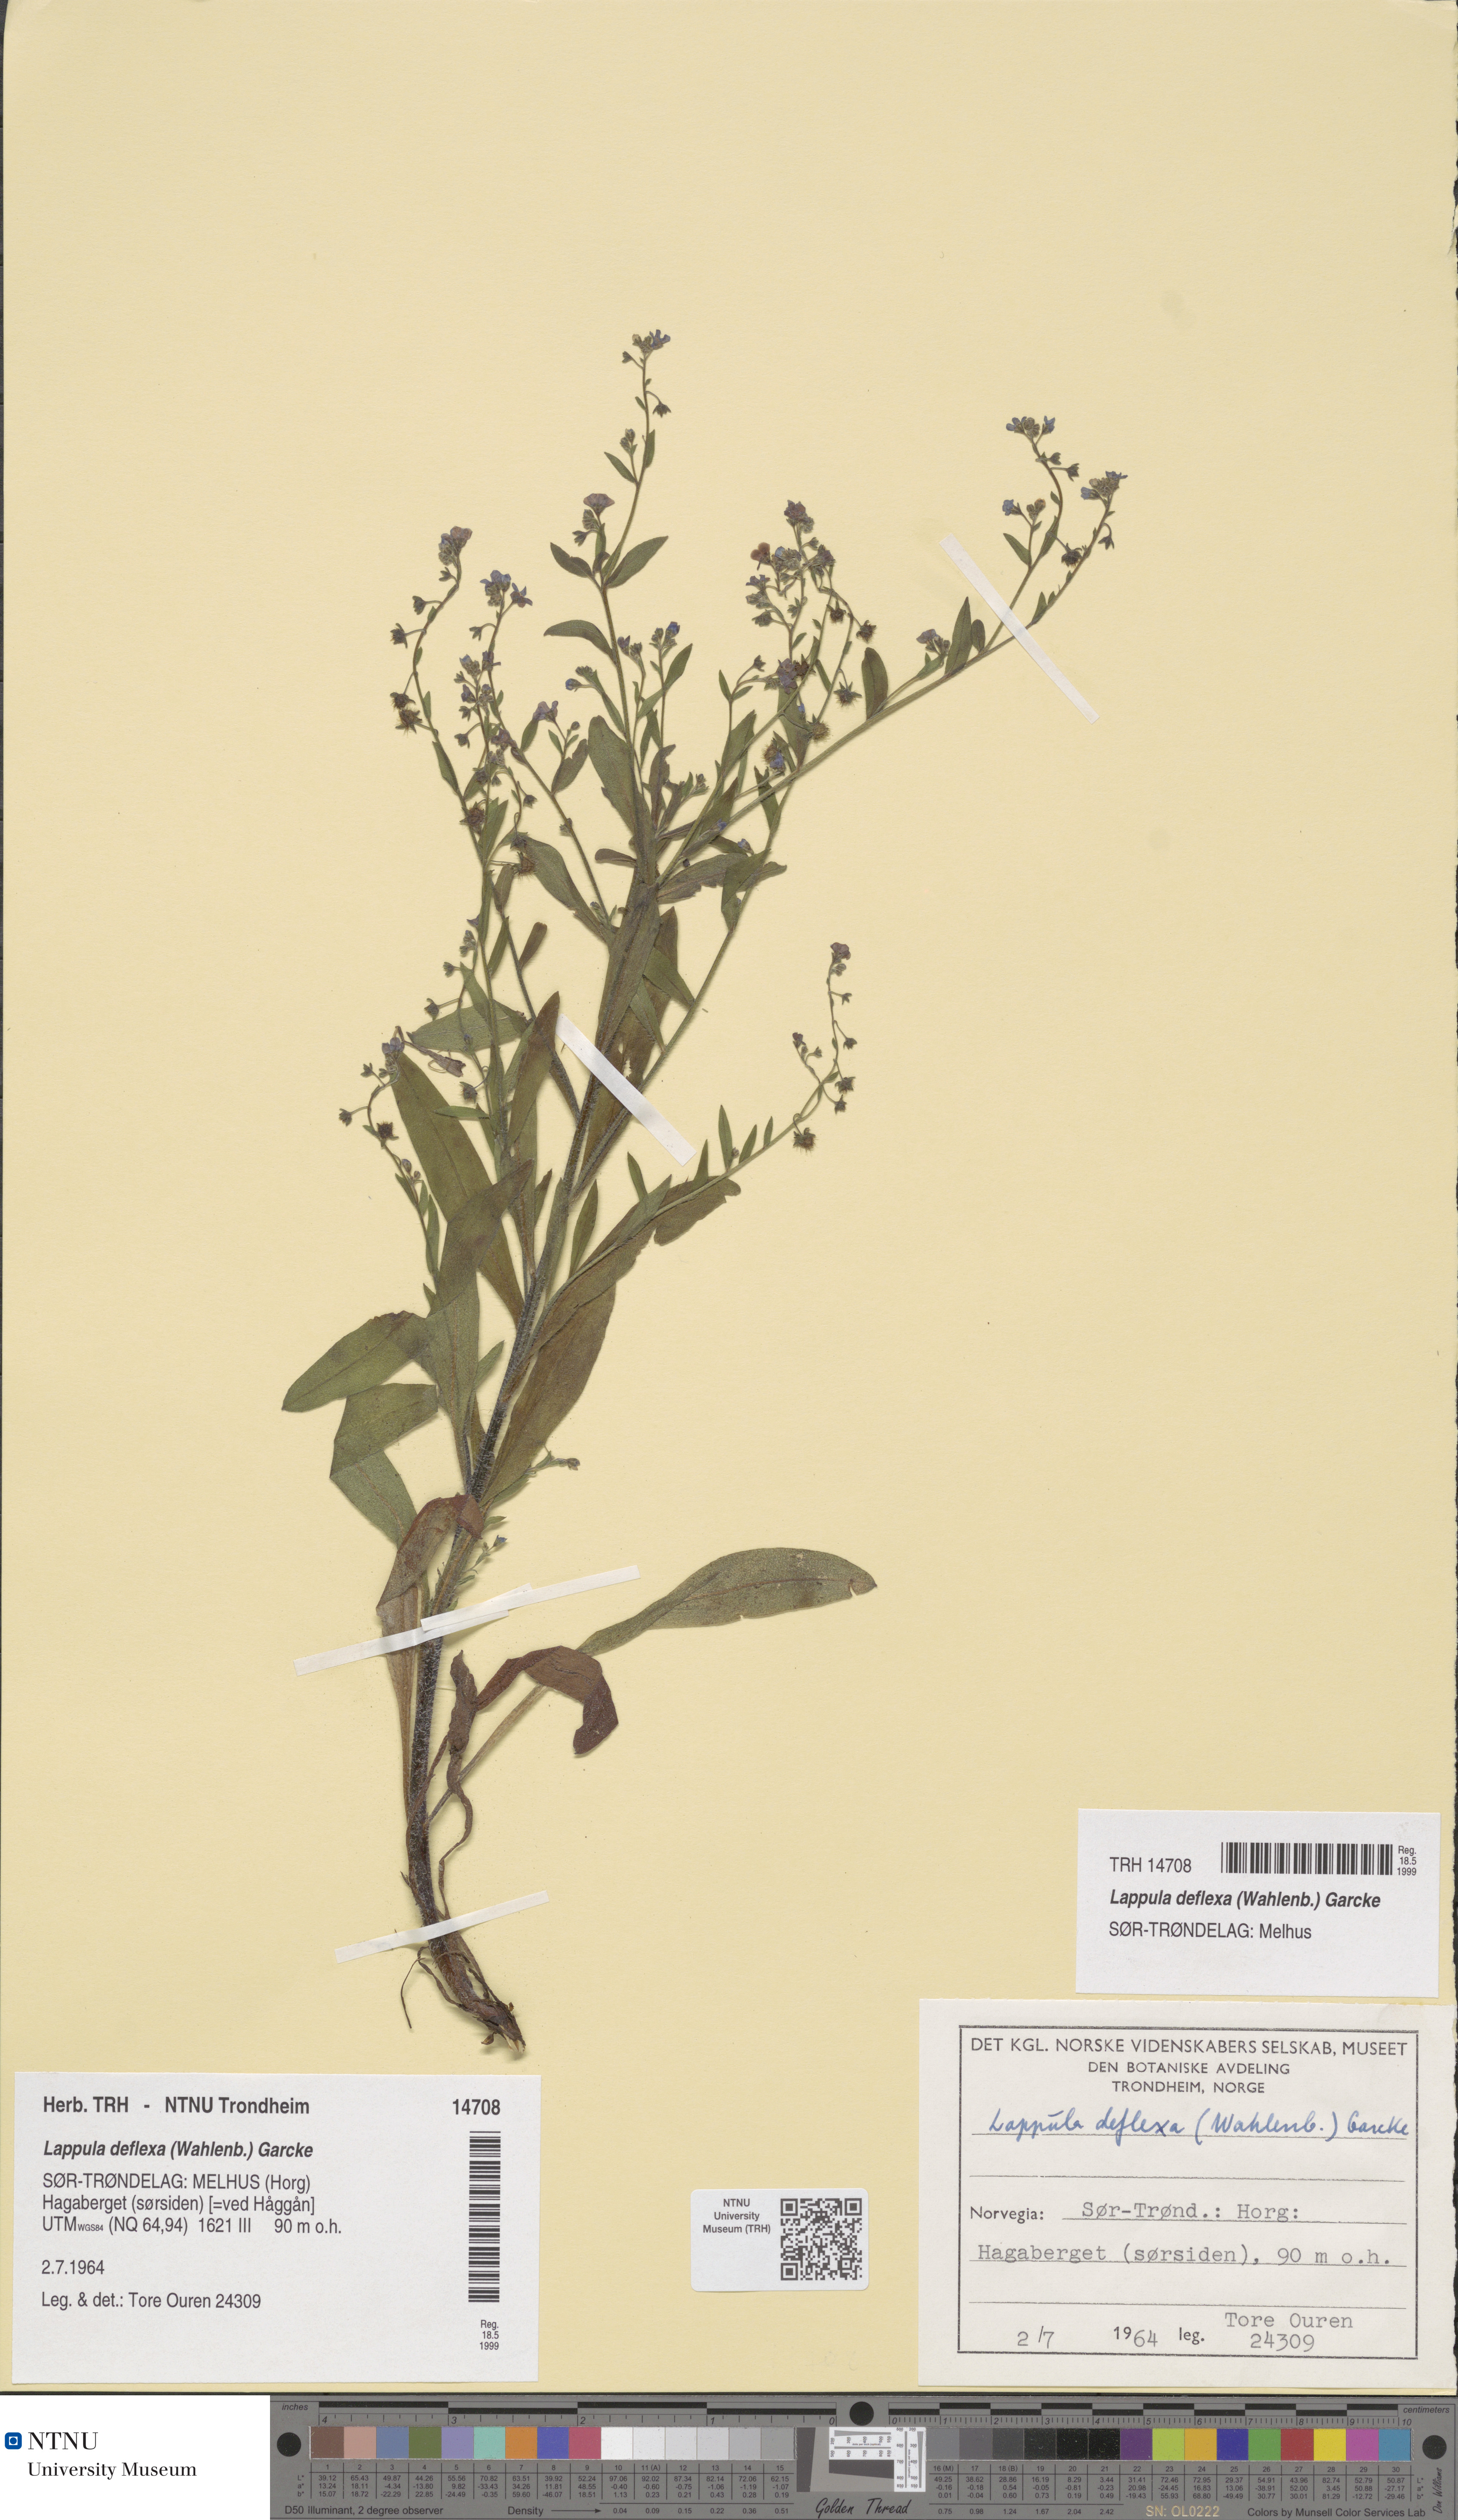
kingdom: Plantae
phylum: Tracheophyta
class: Magnoliopsida
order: Boraginales
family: Boraginaceae
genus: Hackelia
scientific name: Hackelia deflexa
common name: Nodding stickseed
